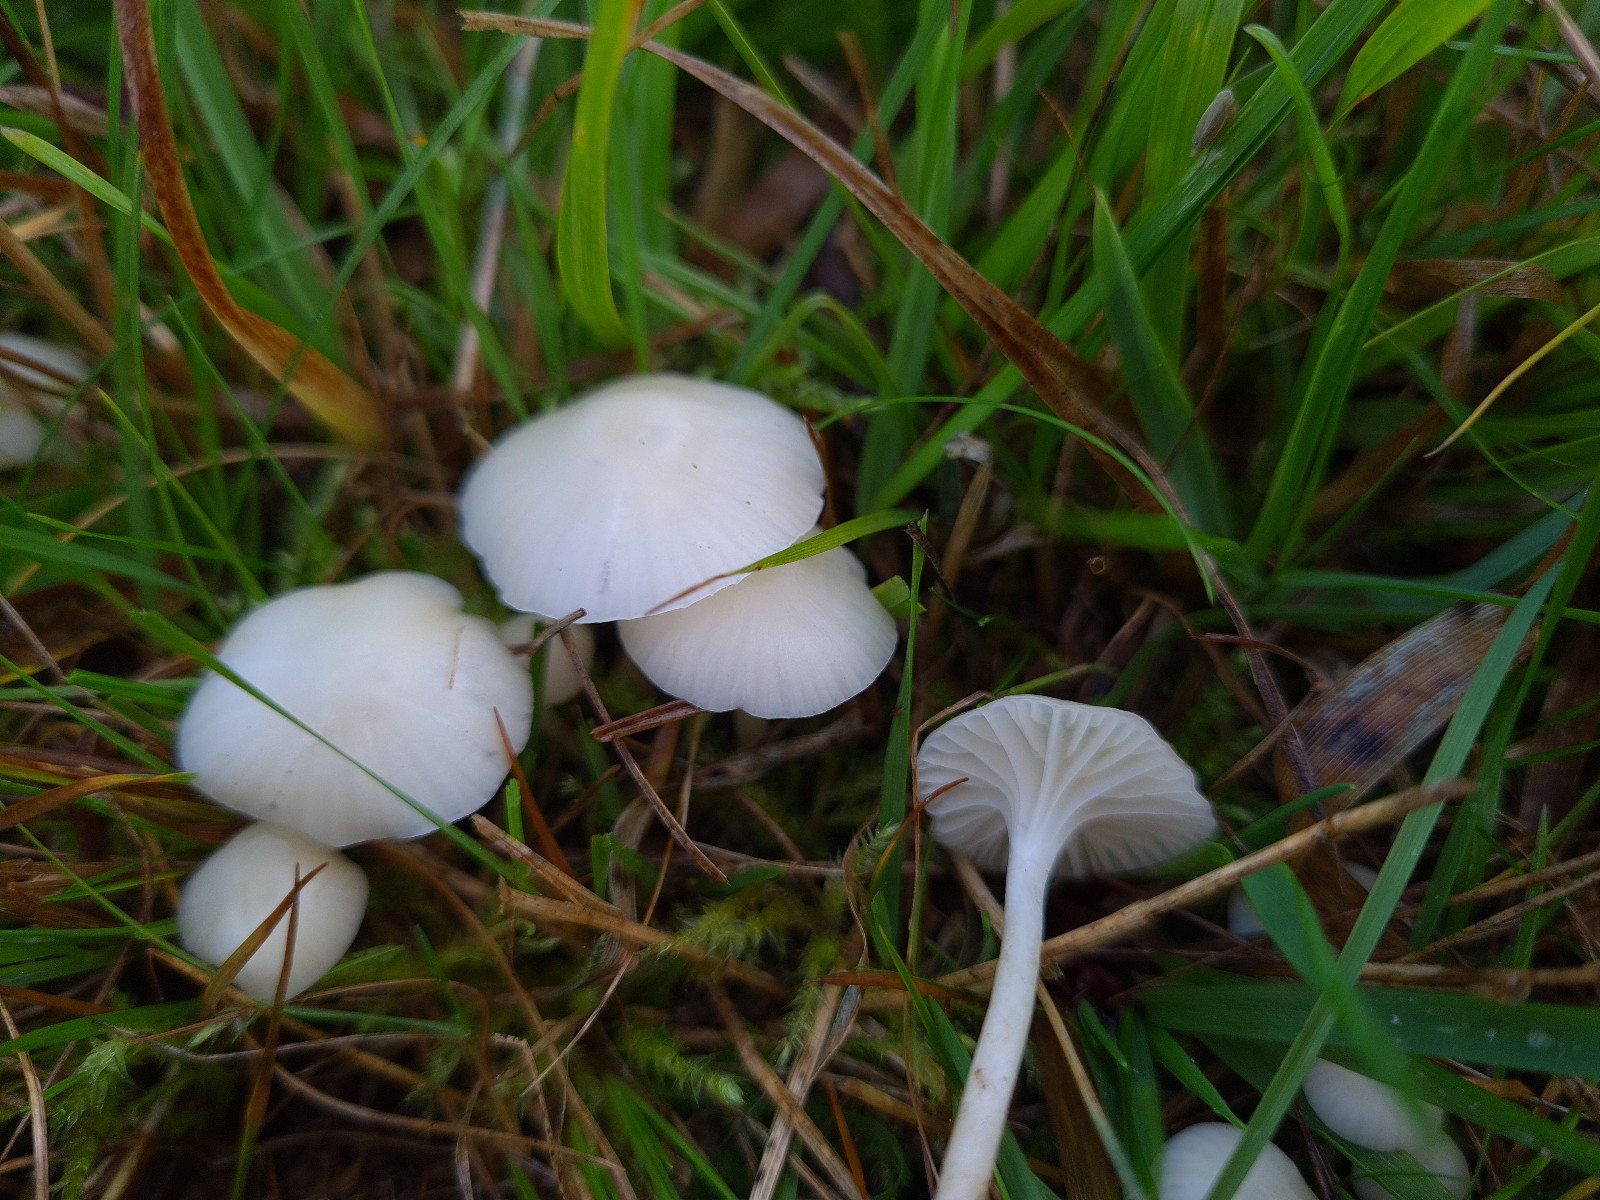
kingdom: Fungi
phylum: Basidiomycota
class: Agaricomycetes
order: Agaricales
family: Hygrophoraceae
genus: Cuphophyllus
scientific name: Cuphophyllus virgineus
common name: snehvid vokshat
